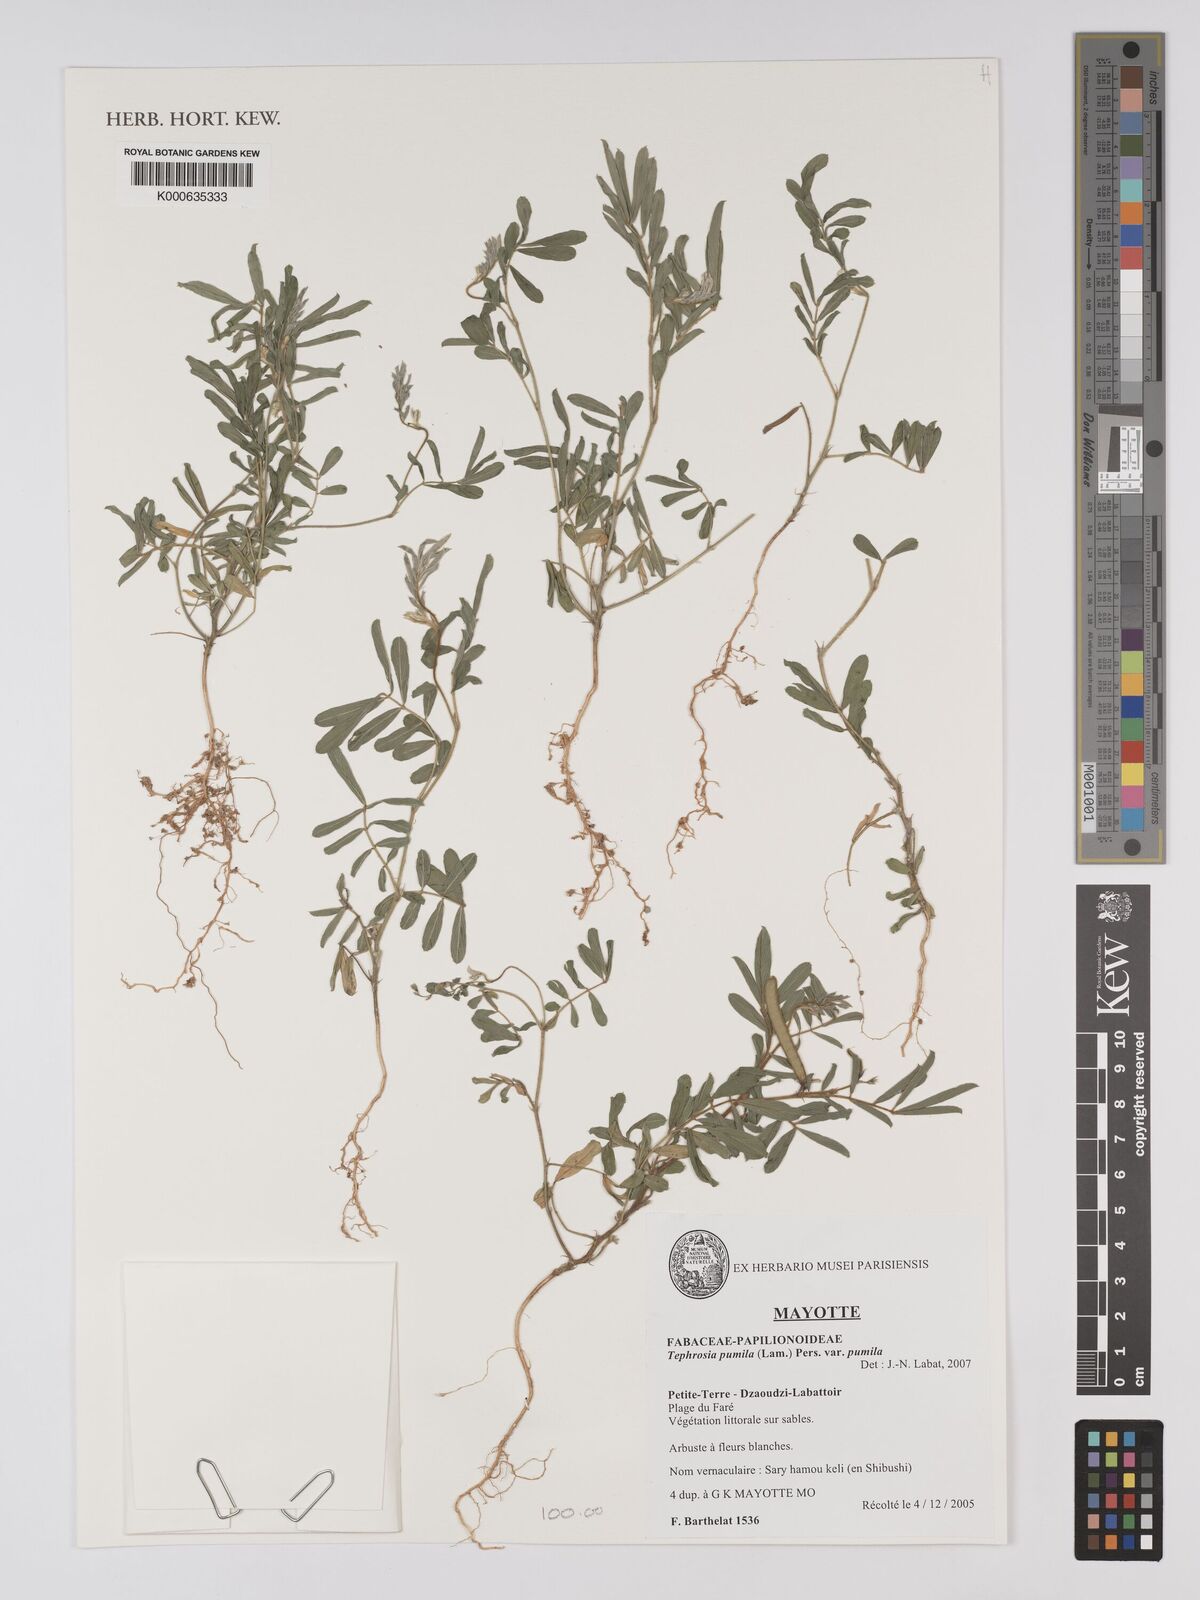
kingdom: Plantae
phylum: Tracheophyta
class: Magnoliopsida
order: Fabales
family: Fabaceae
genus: Tephrosia
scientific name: Tephrosia pumila
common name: Indigo sauvage
